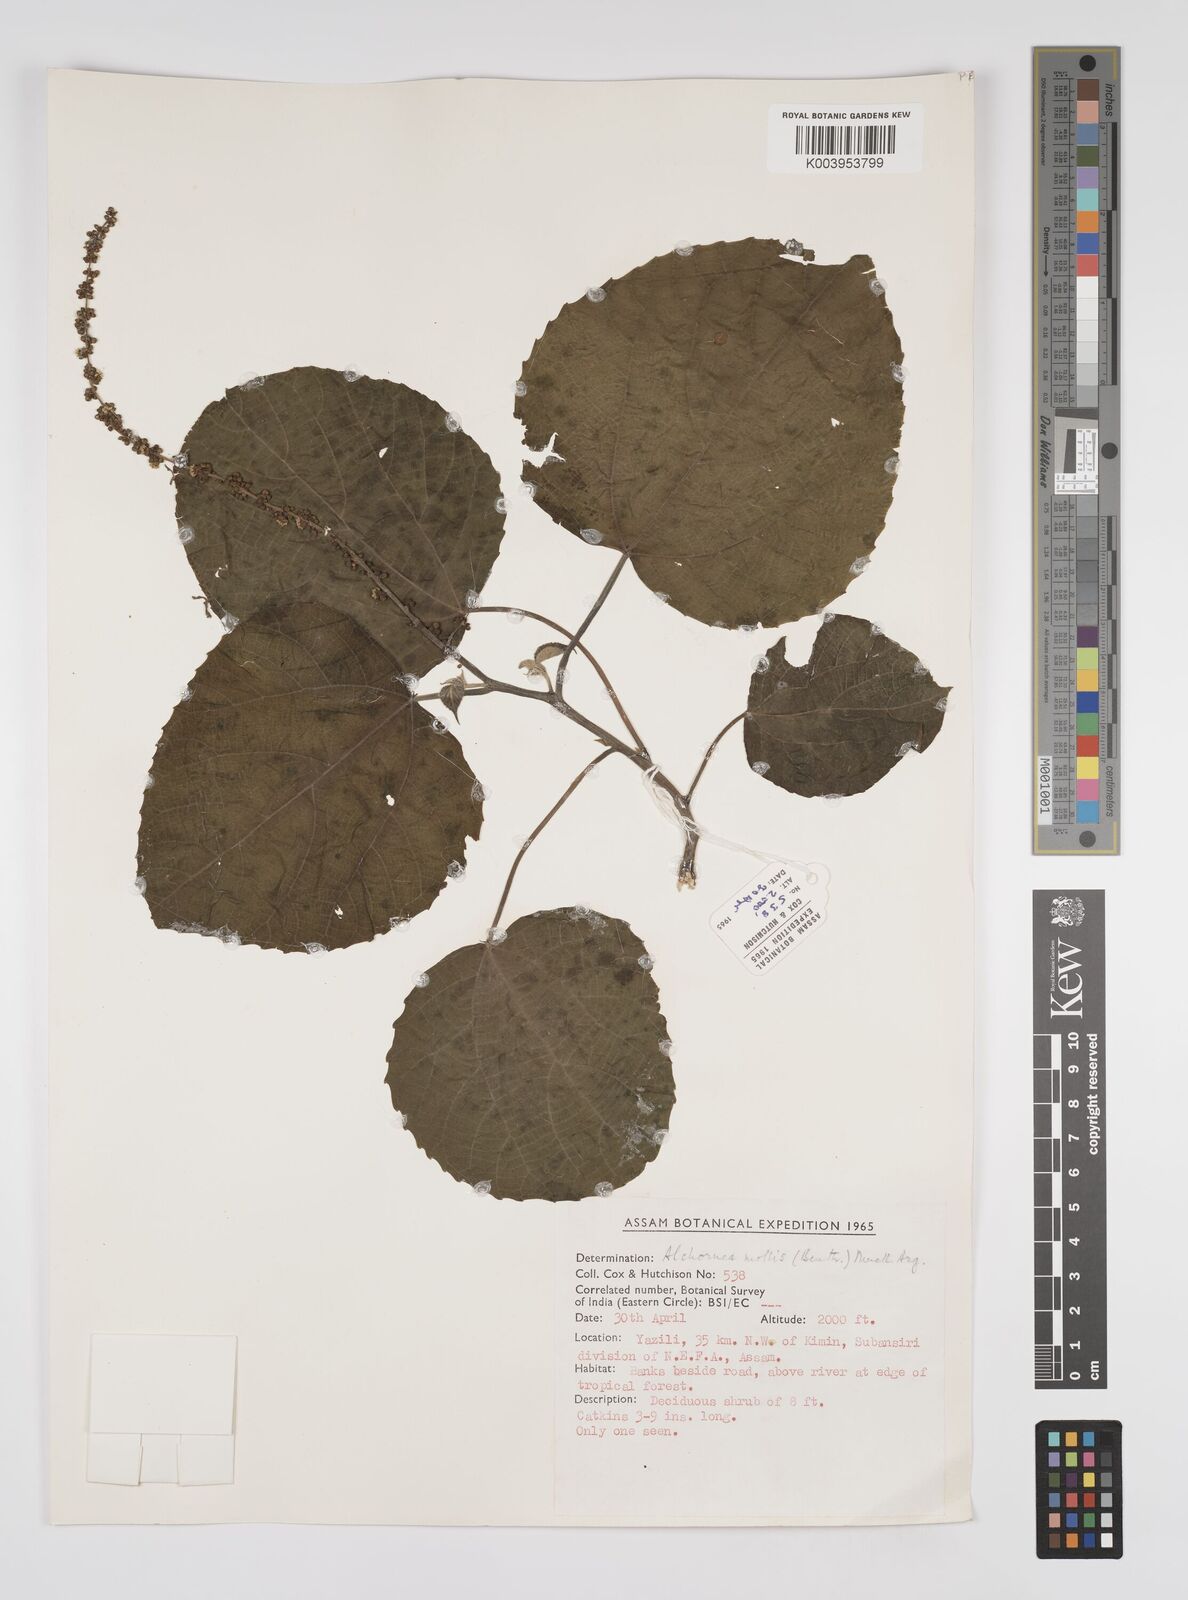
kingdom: Plantae
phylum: Tracheophyta
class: Magnoliopsida
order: Malpighiales
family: Euphorbiaceae
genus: Alchornea
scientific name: Alchornea mollis
